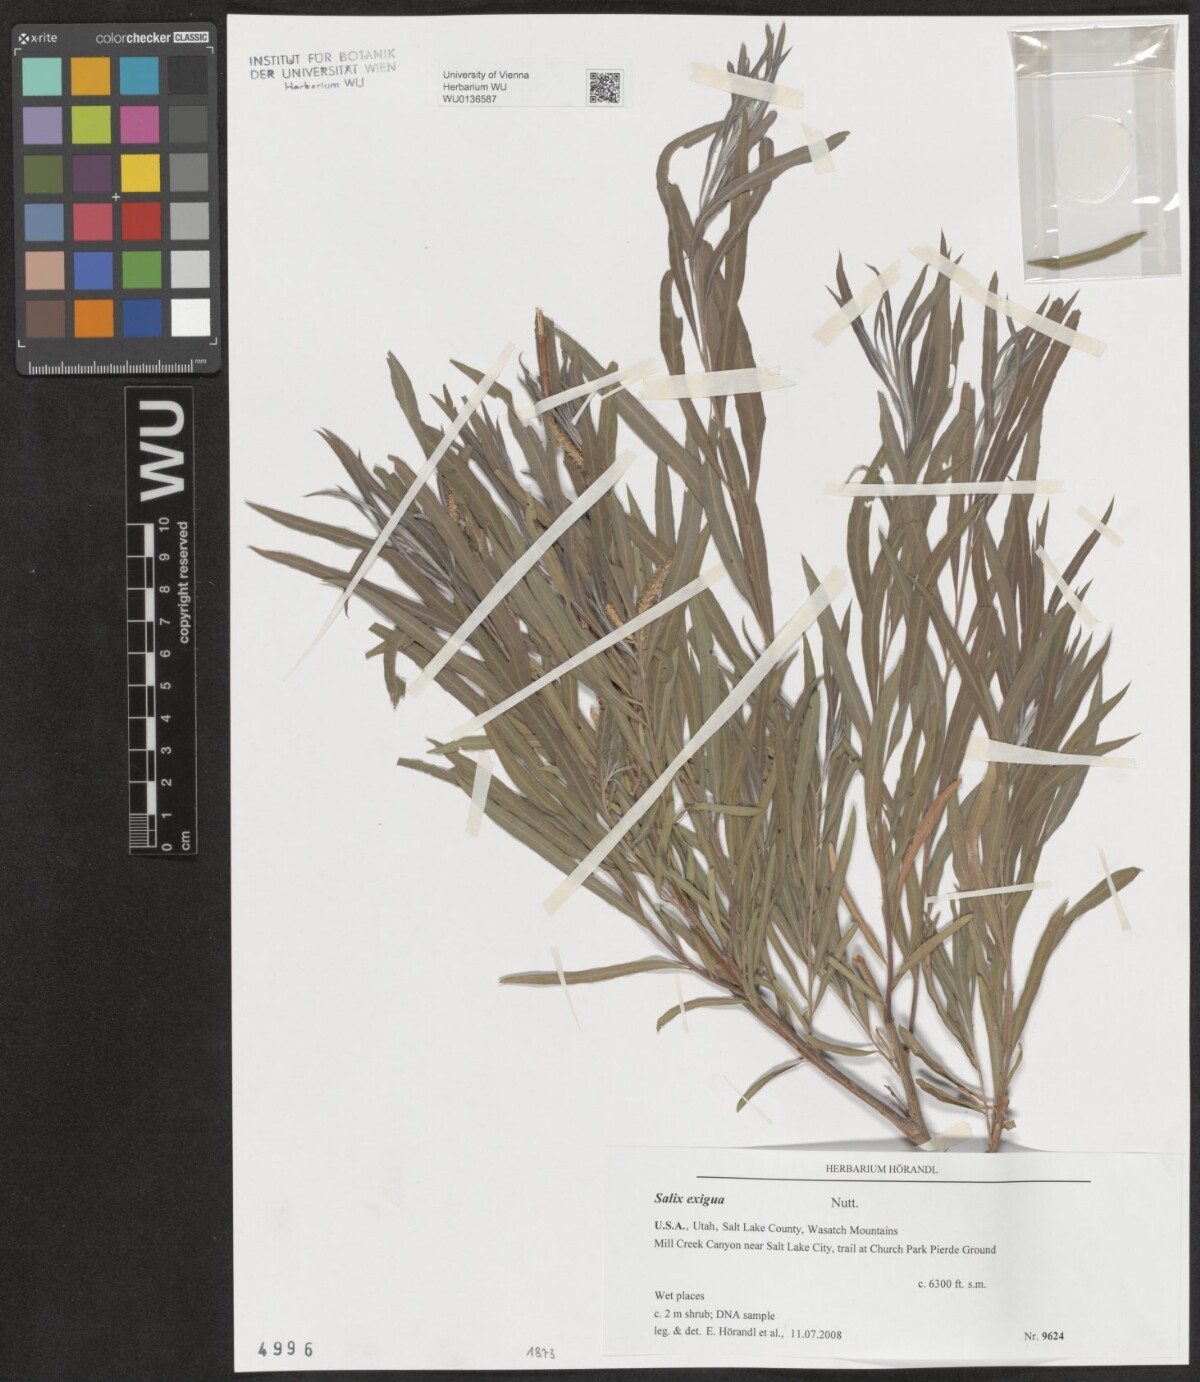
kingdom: Plantae
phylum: Tracheophyta
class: Magnoliopsida
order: Malpighiales
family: Salicaceae
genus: Salix
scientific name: Salix exigua
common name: Coyote willow
